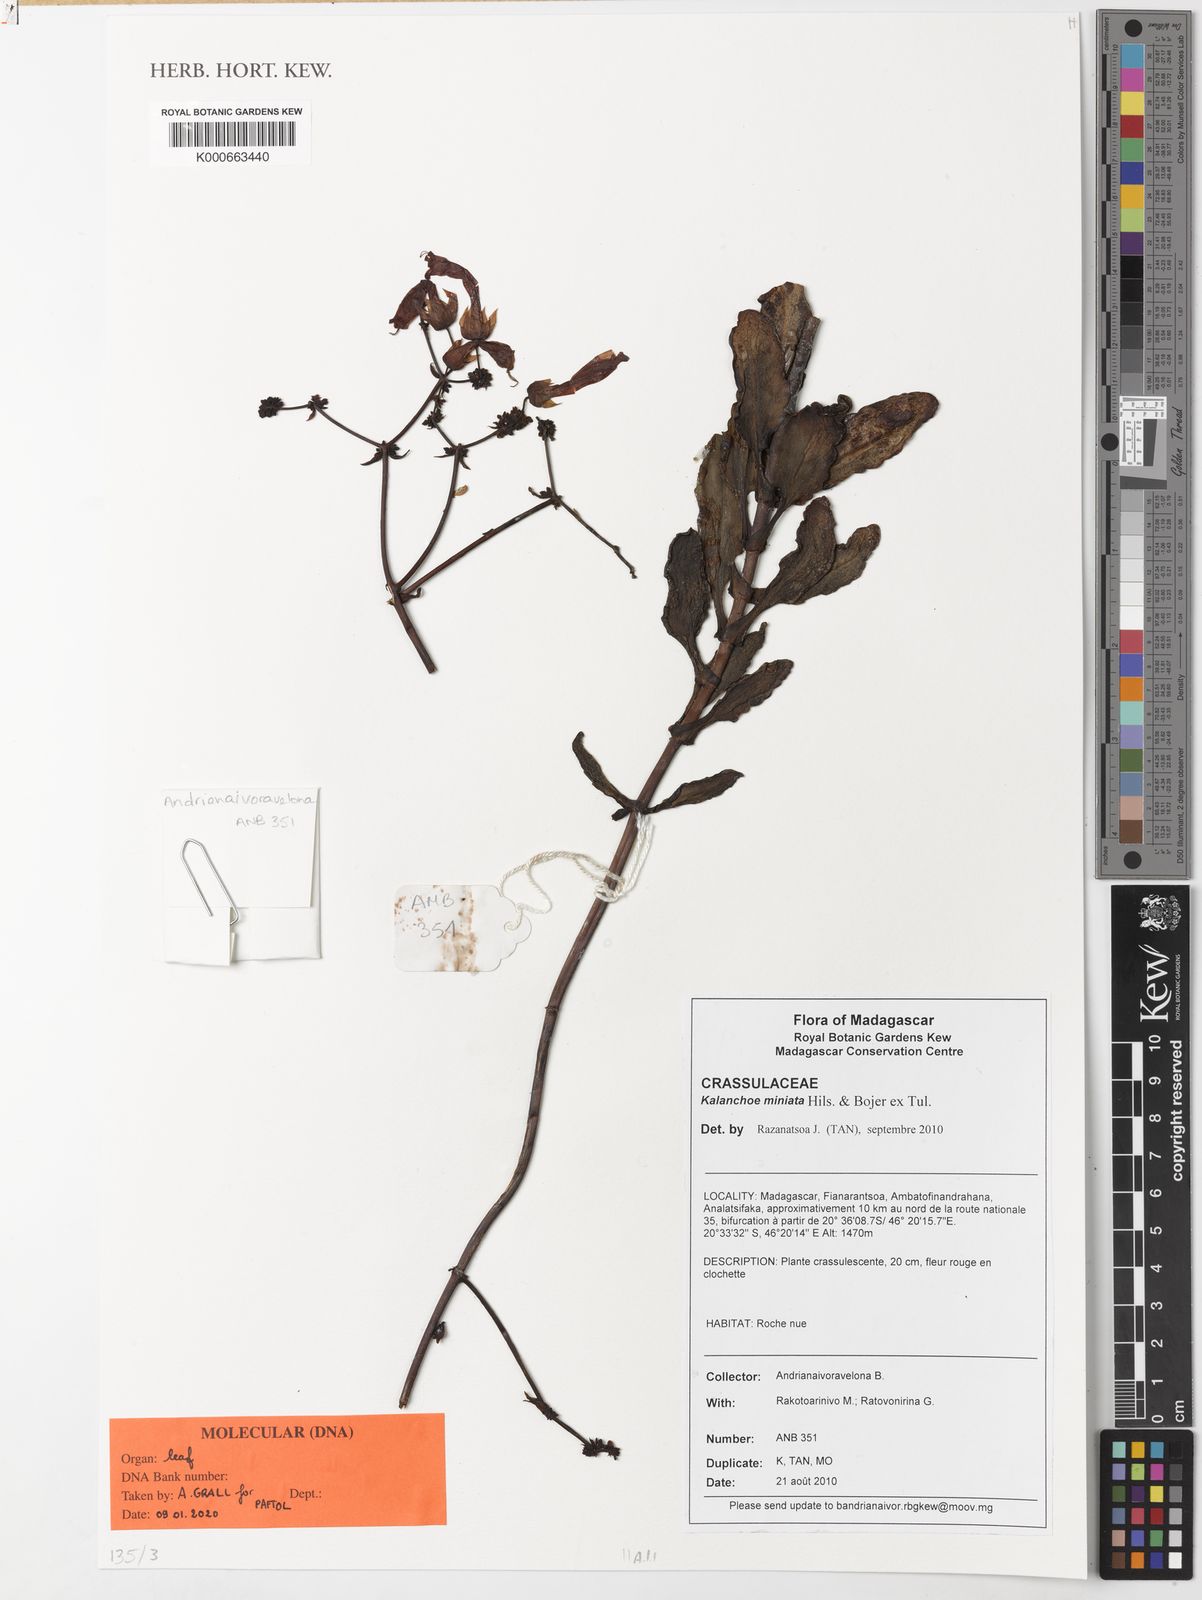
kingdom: Plantae
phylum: Tracheophyta
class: Magnoliopsida
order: Saxifragales
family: Crassulaceae
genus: Kalanchoe
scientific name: Kalanchoe miniata
